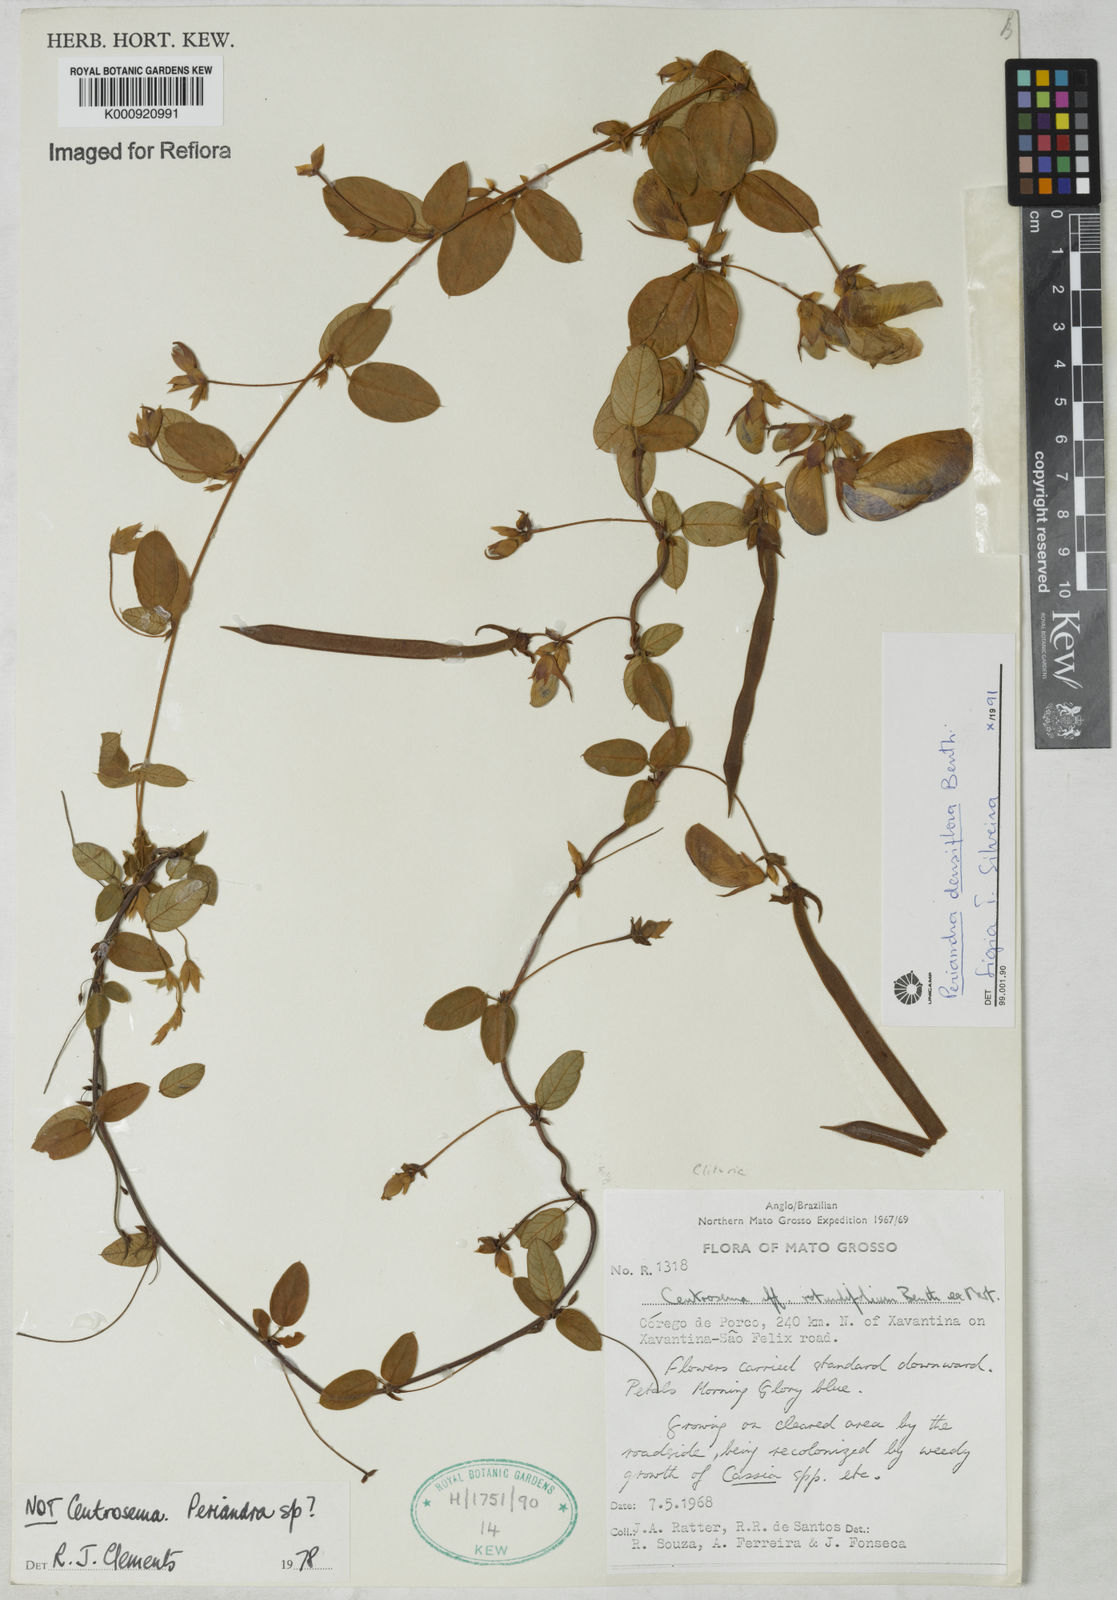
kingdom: Plantae
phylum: Tracheophyta
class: Magnoliopsida
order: Fabales
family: Fabaceae
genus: Periandra
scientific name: Periandra densiflora
